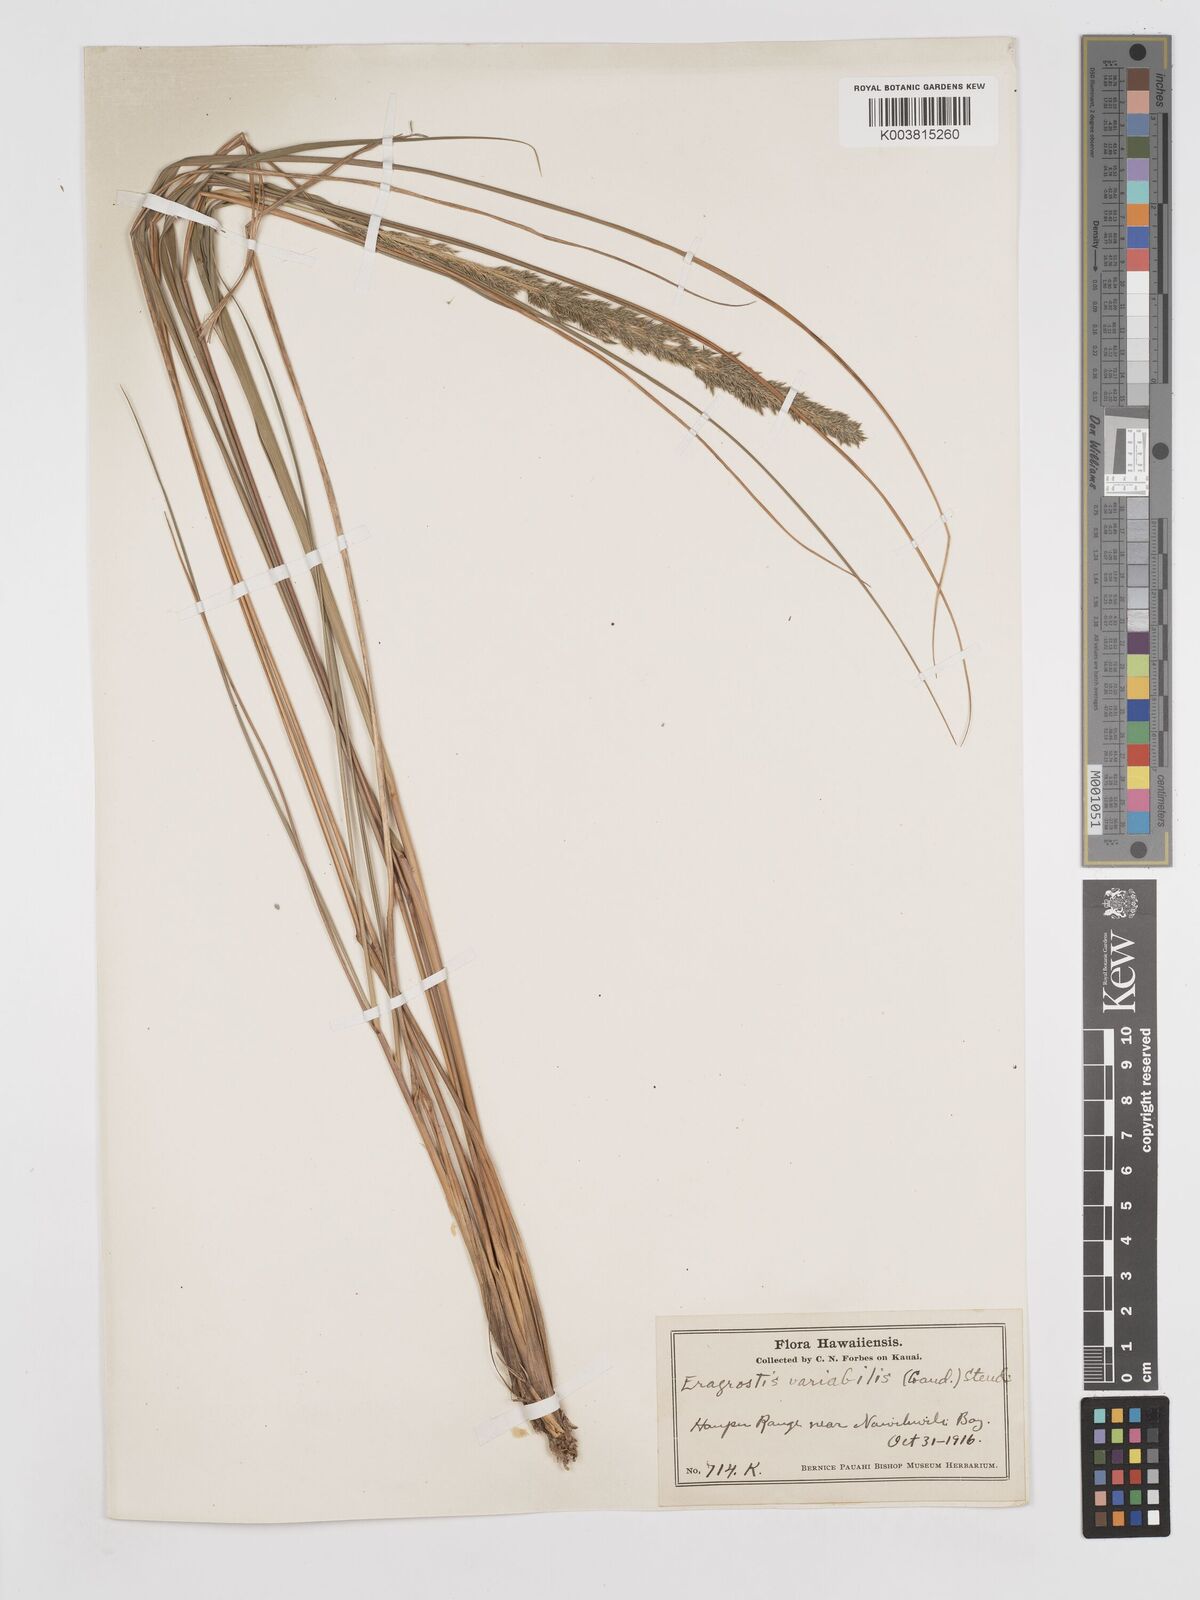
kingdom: Plantae
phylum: Tracheophyta
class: Liliopsida
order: Poales
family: Poaceae
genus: Eragrostis
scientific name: Eragrostis variabilis
